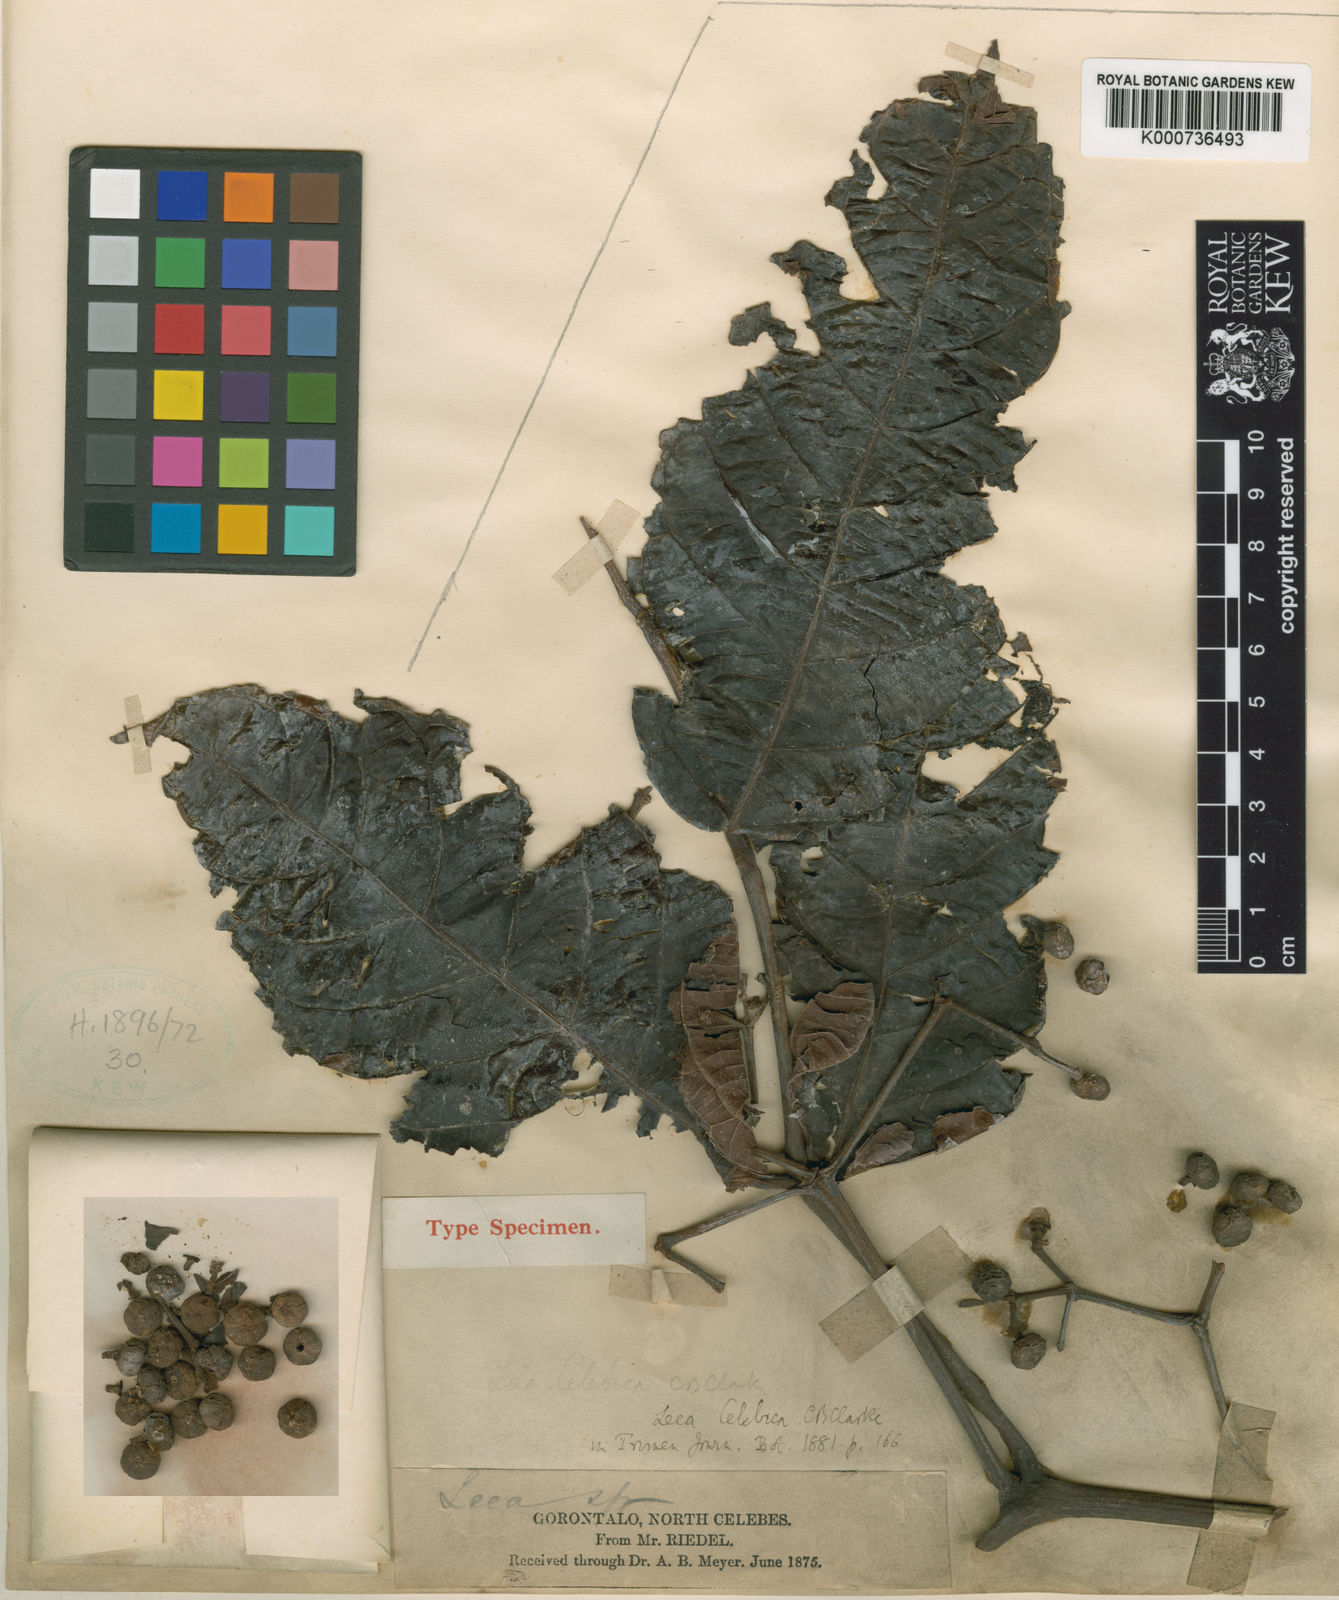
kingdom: Plantae
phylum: Tracheophyta
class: Magnoliopsida
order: Vitales
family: Vitaceae
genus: Leea
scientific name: Leea indica
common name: Bandicoot-berry
